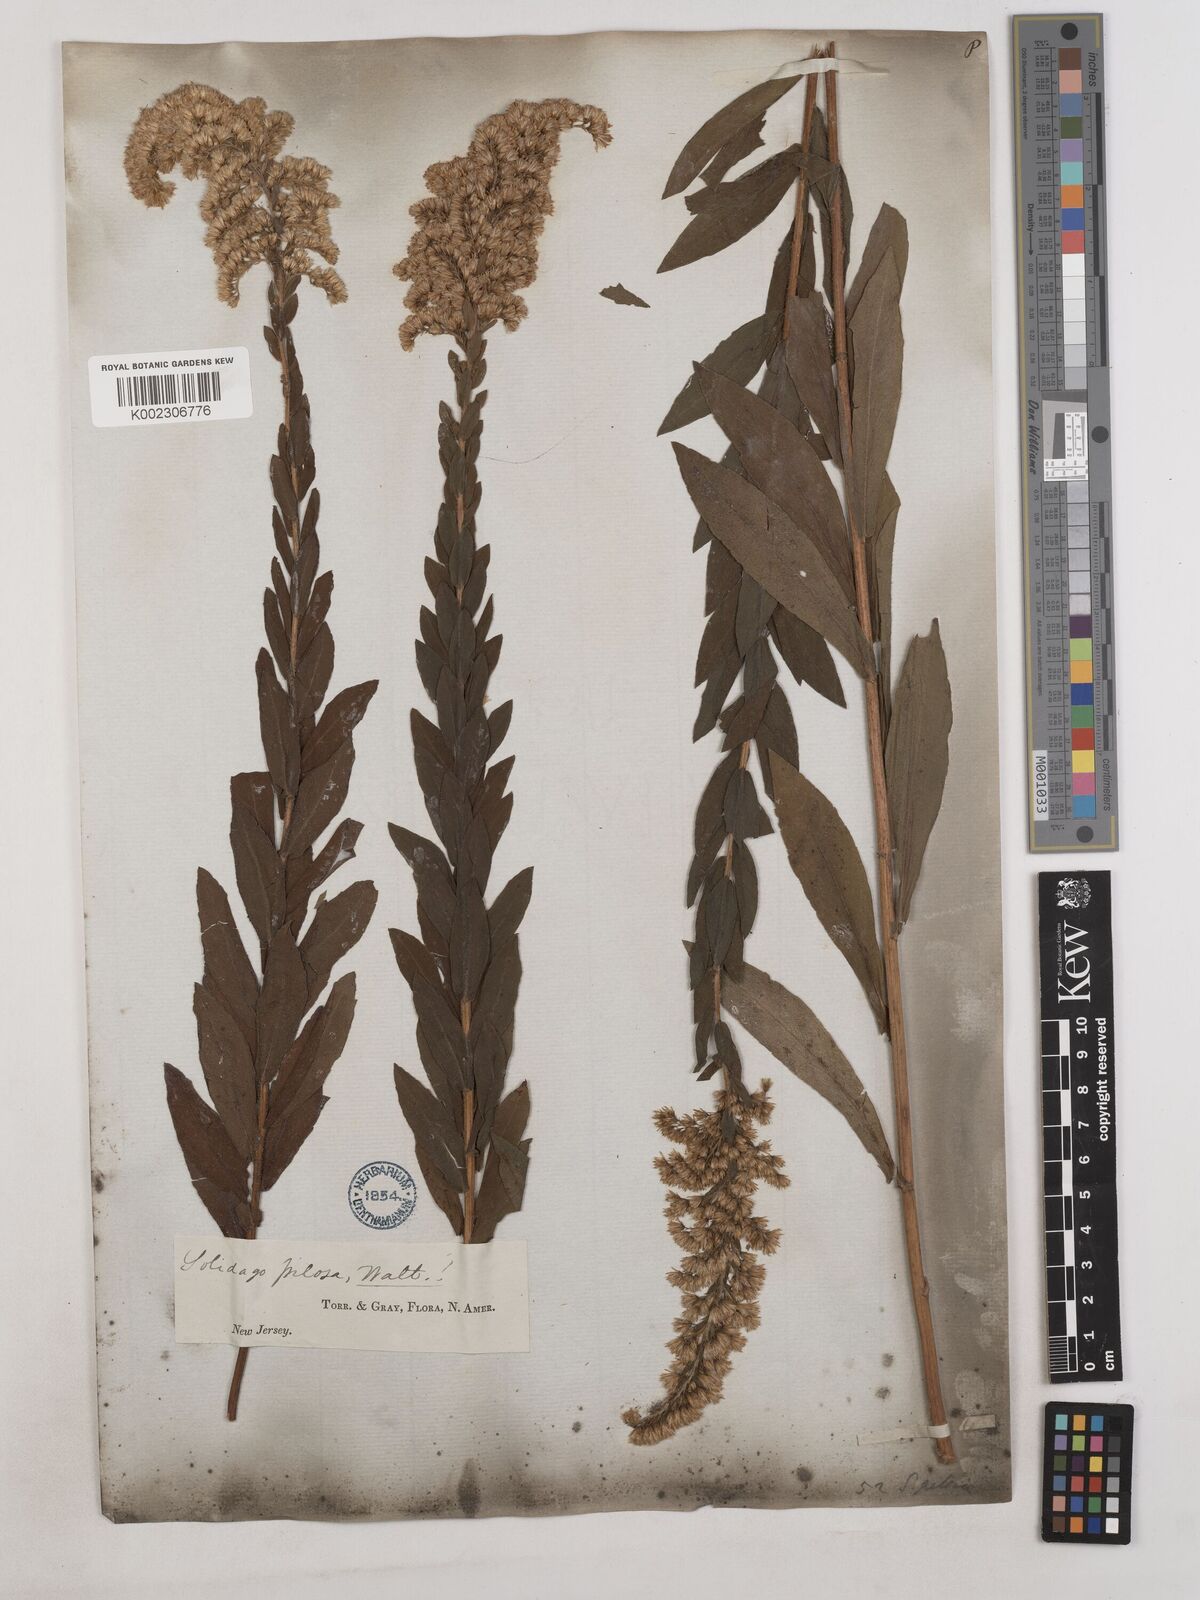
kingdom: Plantae
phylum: Tracheophyta
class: Magnoliopsida
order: Asterales
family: Asteraceae
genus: Solidago
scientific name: Solidago fistulosa
